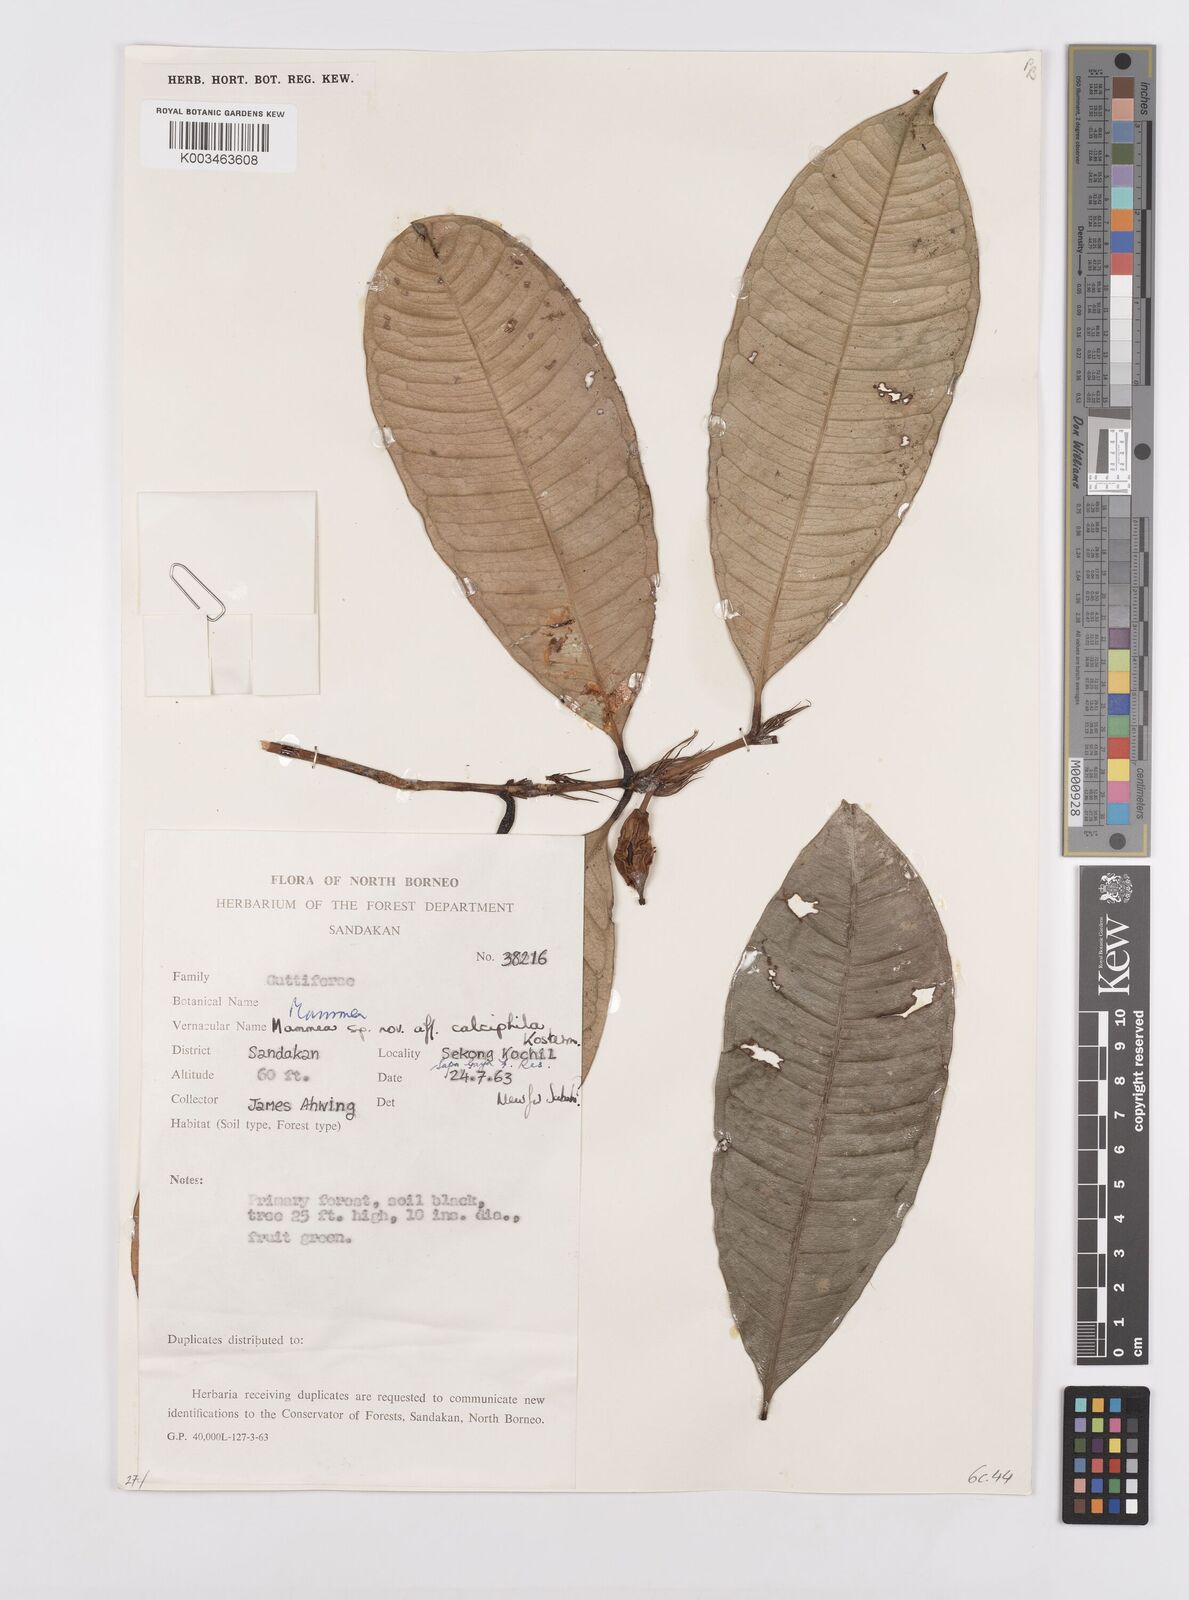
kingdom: Plantae
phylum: Tracheophyta
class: Magnoliopsida
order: Malpighiales
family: Calophyllaceae
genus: Mammea
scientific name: Mammea calciphila
